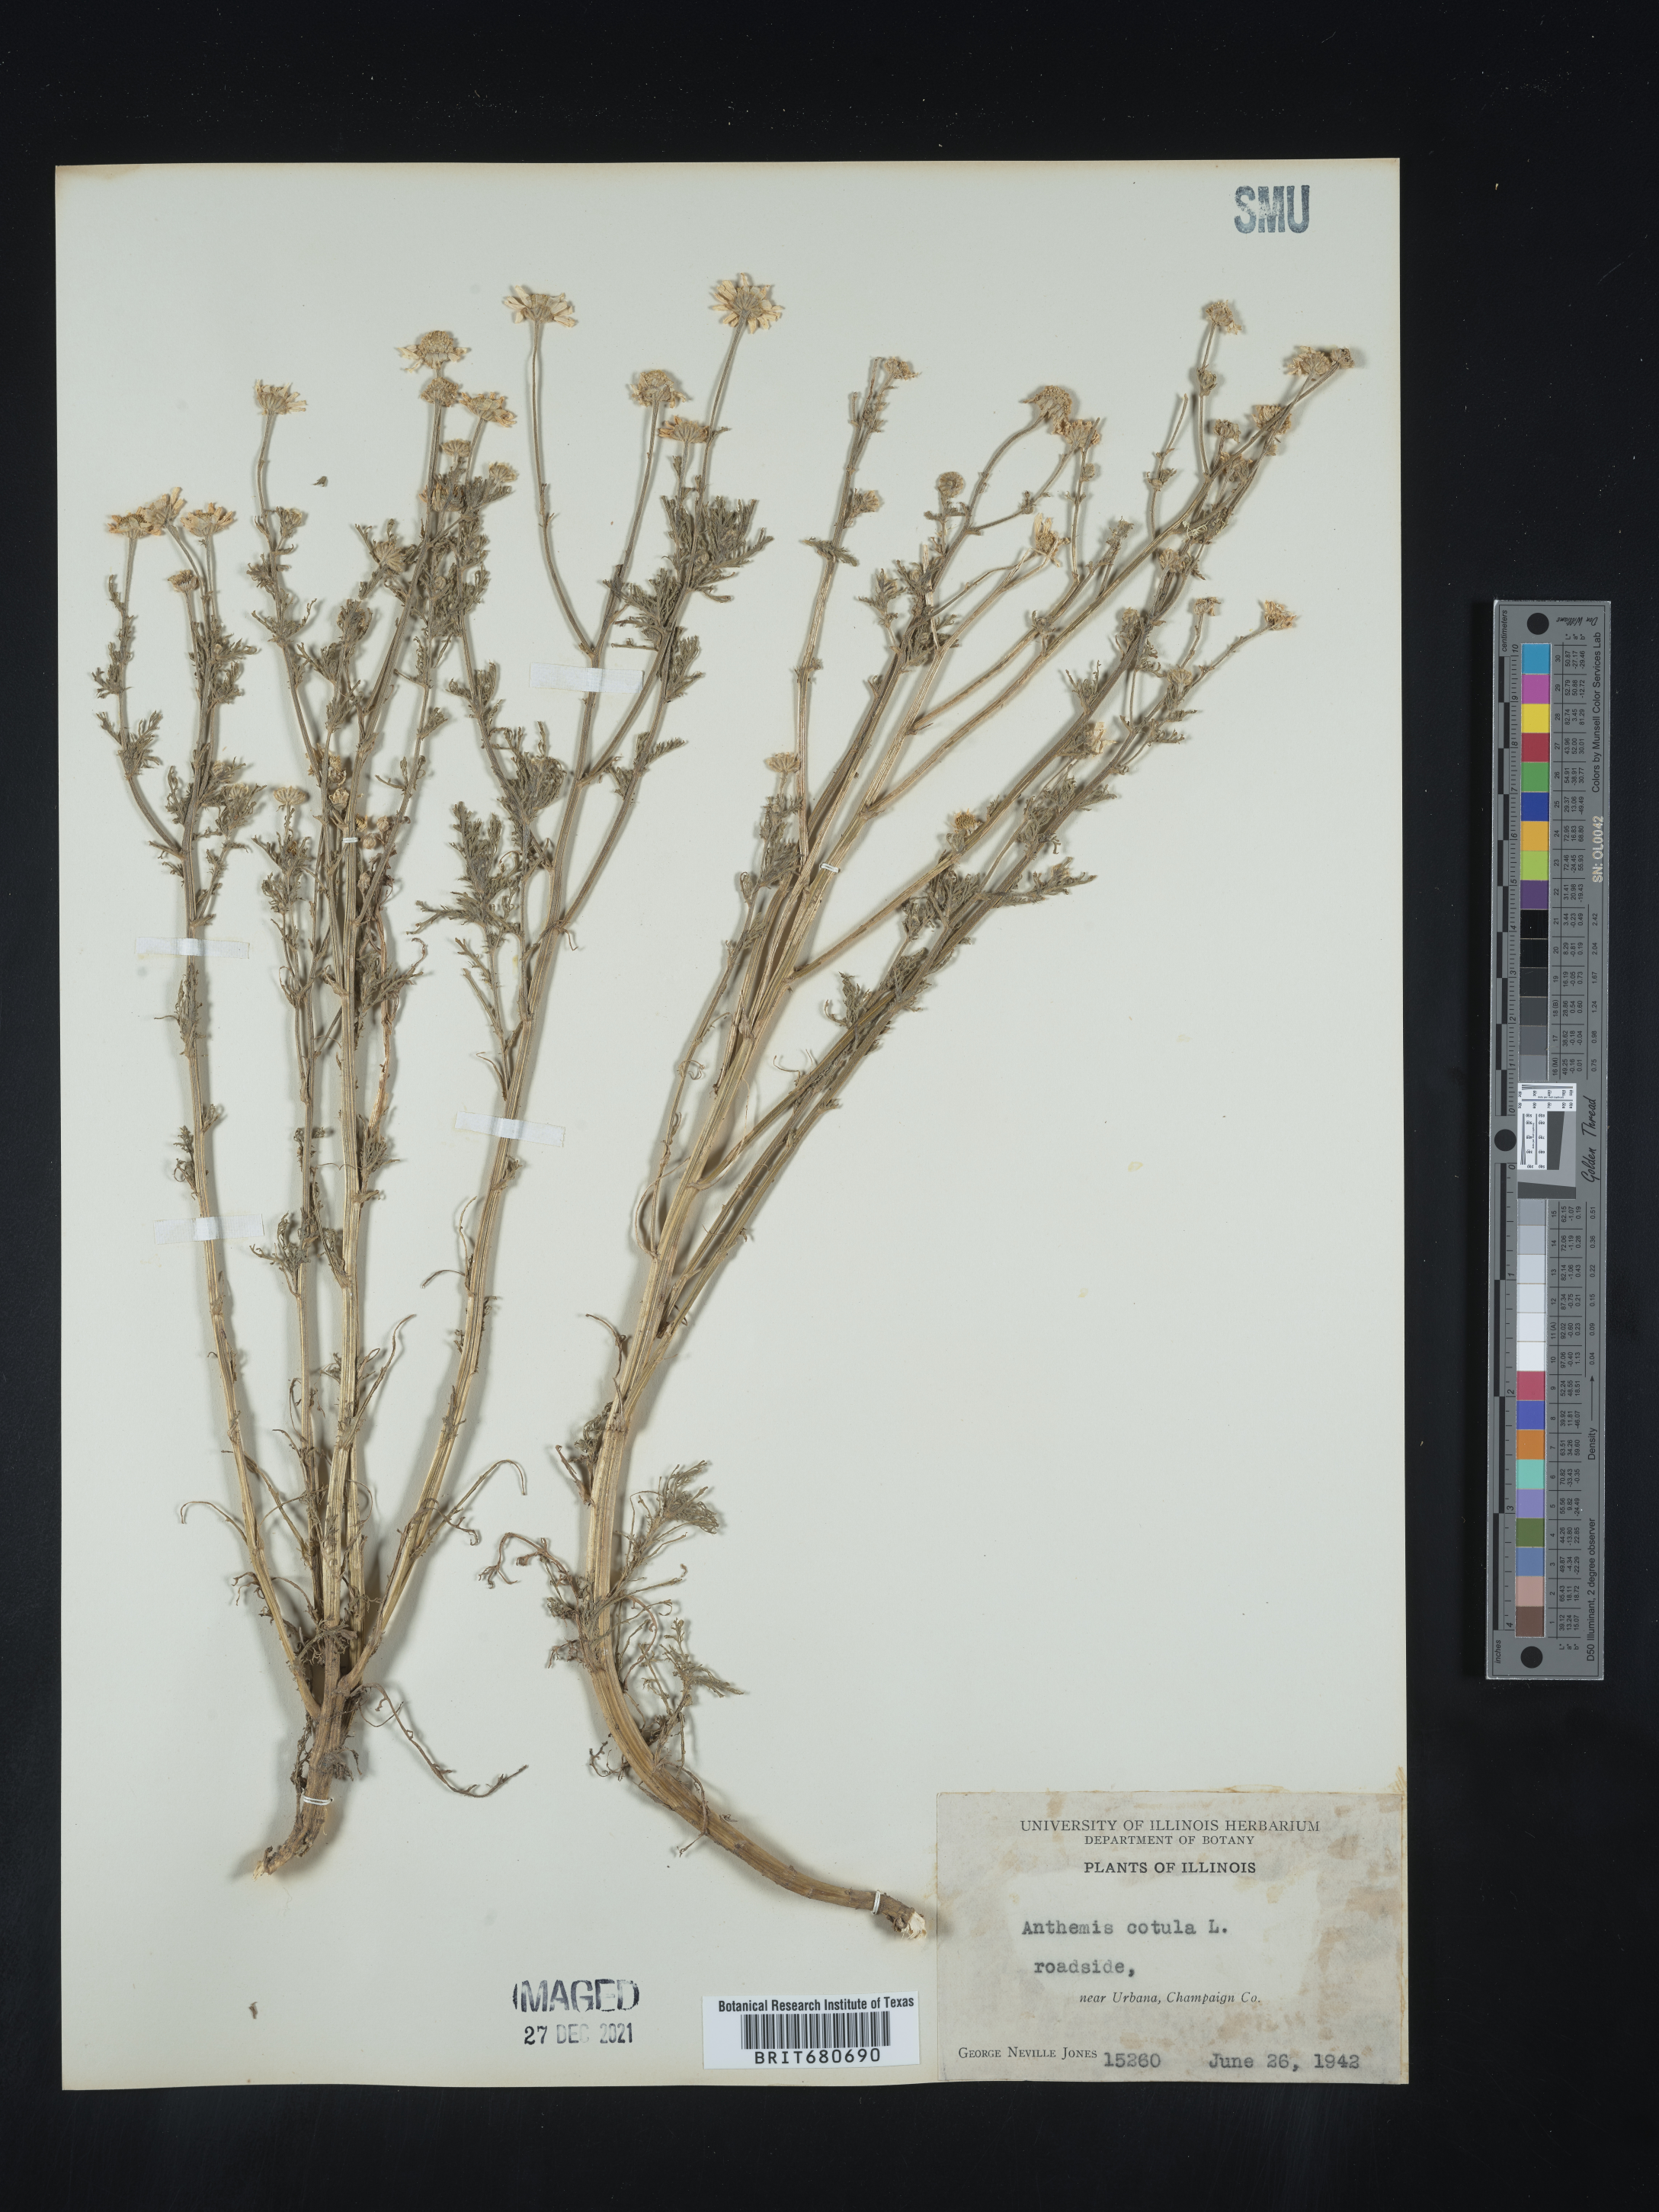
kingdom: Plantae
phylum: Tracheophyta
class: Magnoliopsida
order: Asterales
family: Asteraceae
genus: Anthemis
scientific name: Anthemis cotula
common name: Stinking chamomile
